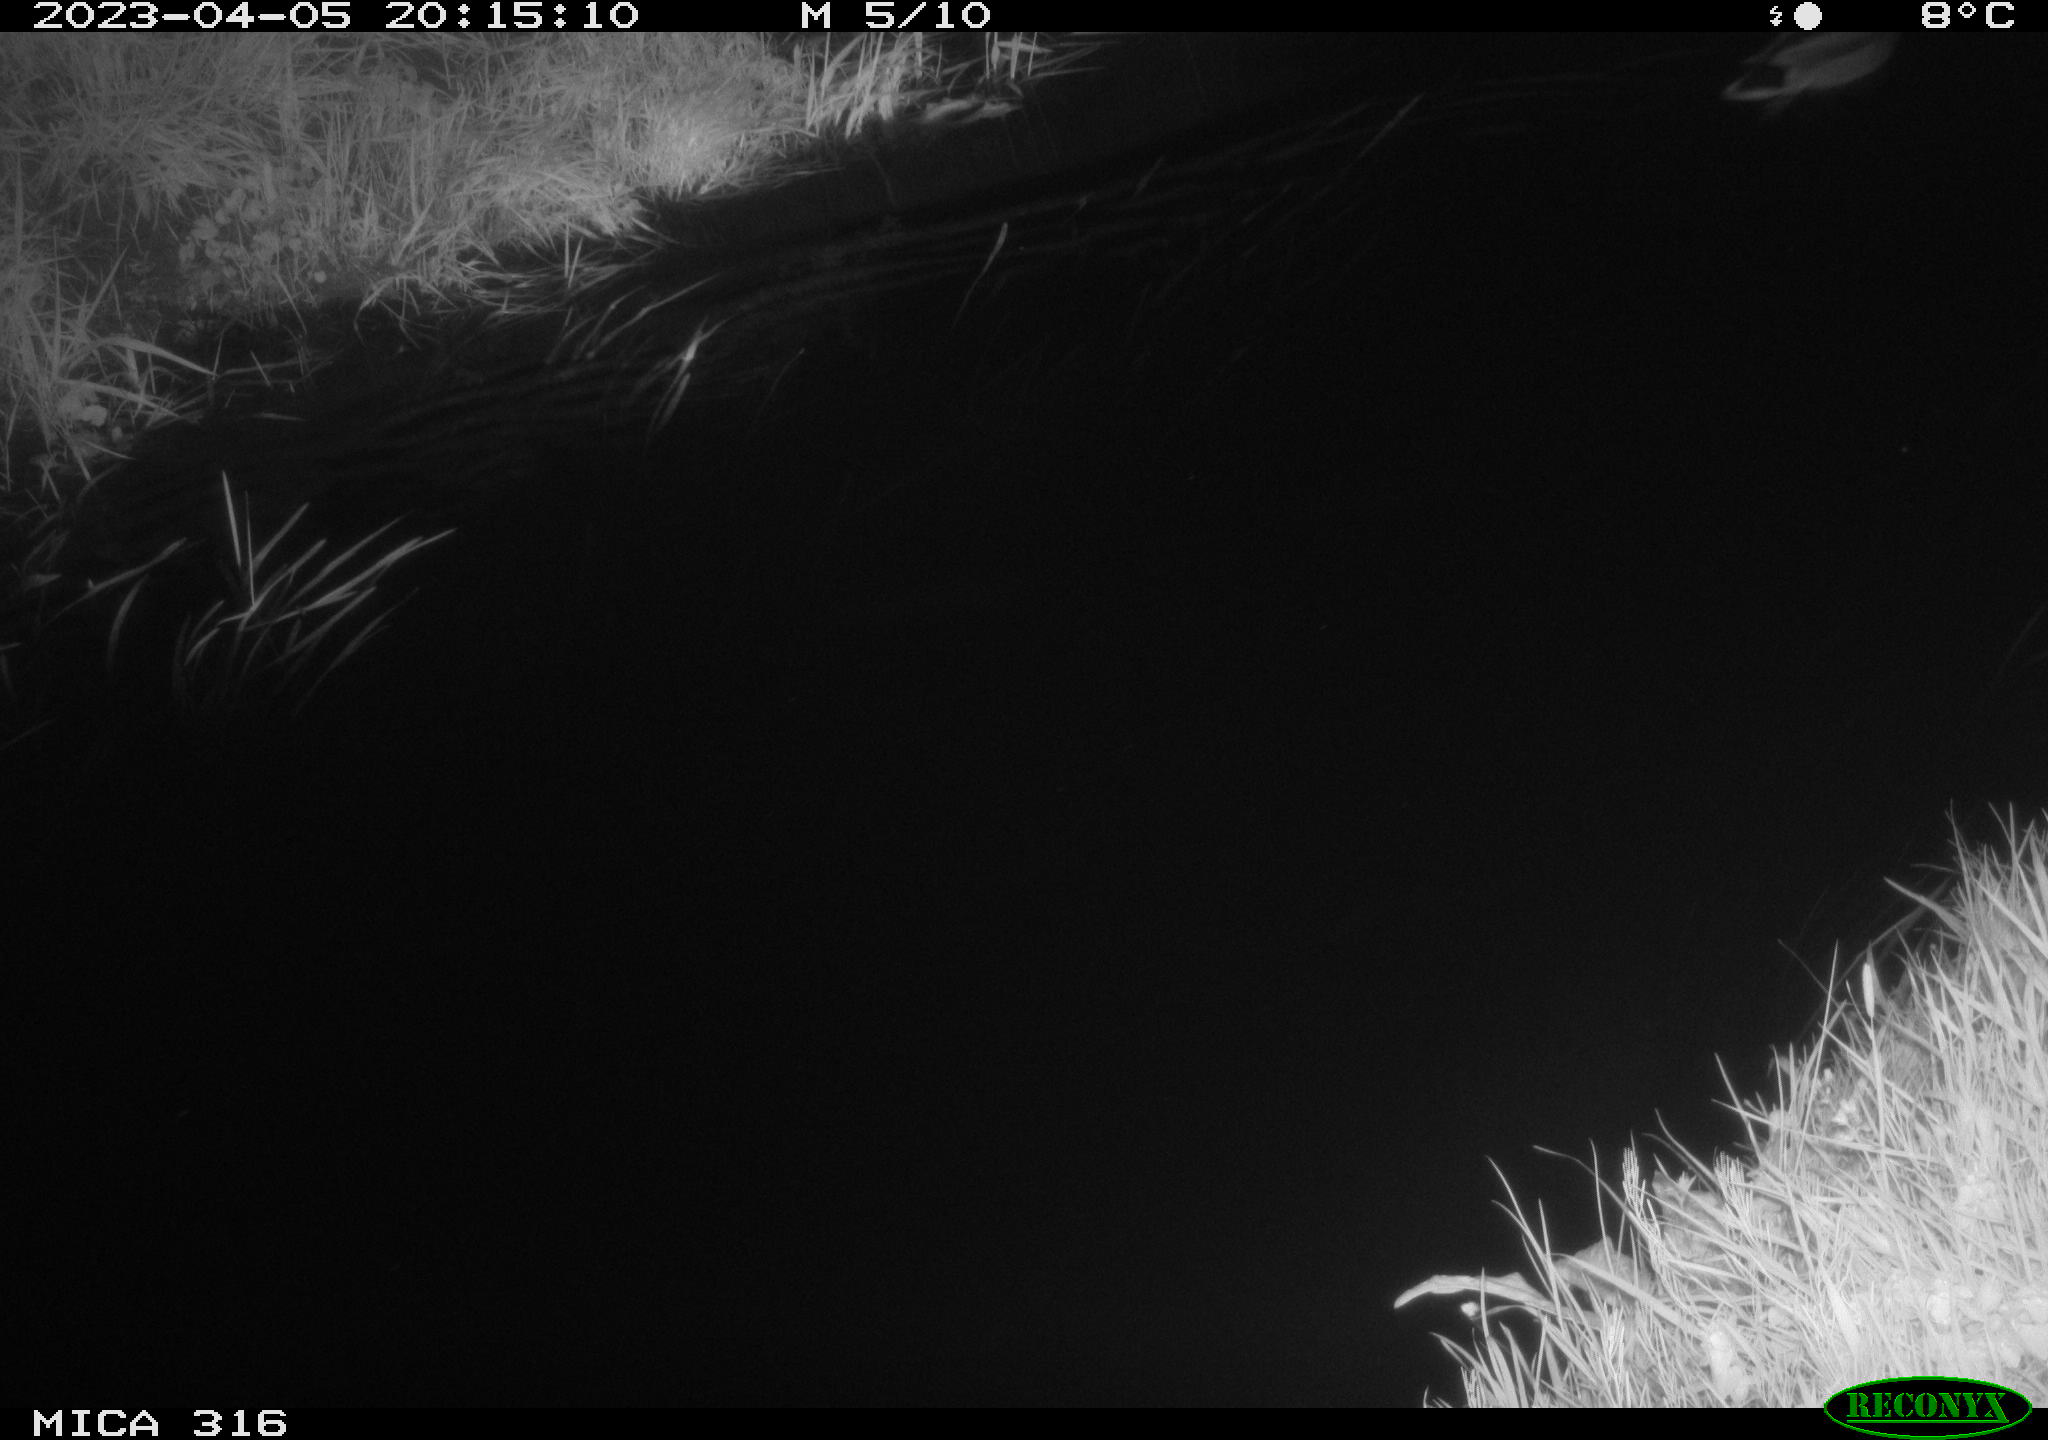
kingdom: Animalia
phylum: Chordata
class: Aves
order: Anseriformes
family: Anatidae
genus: Anas
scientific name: Anas
